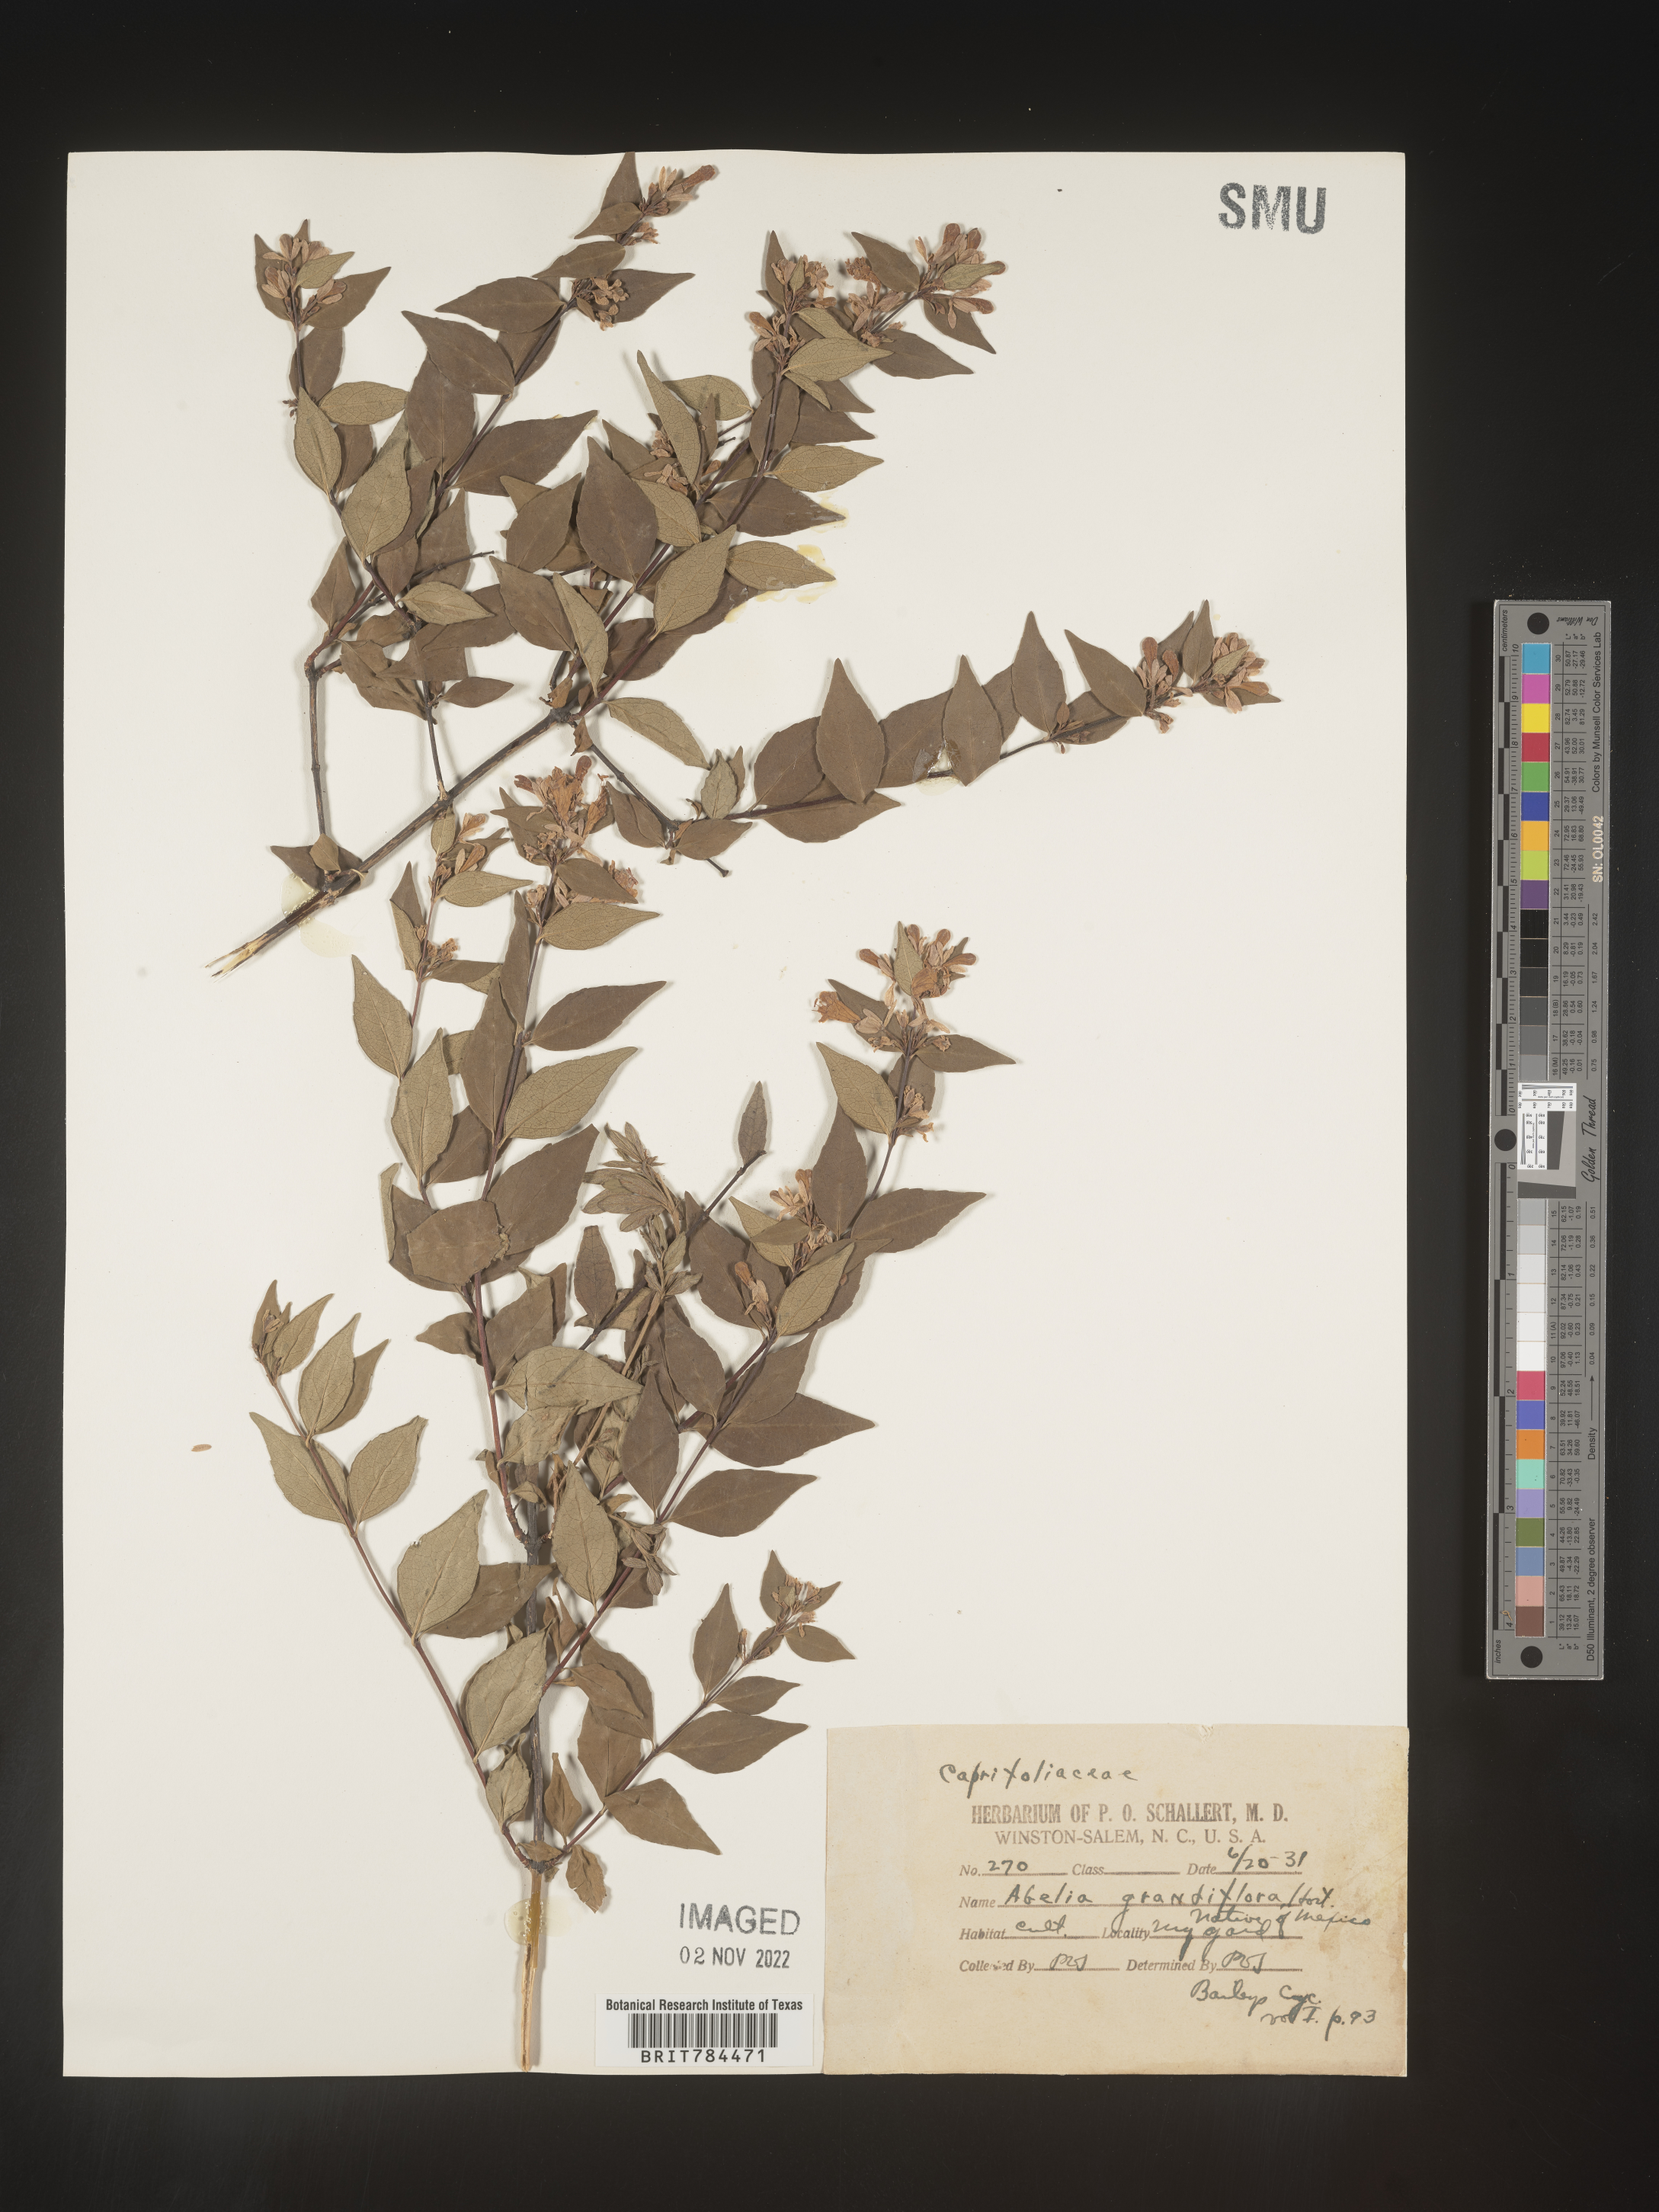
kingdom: Plantae
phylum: Tracheophyta
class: Magnoliopsida
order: Dipsacales
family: Caprifoliaceae
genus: Abelia
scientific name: Abelia
